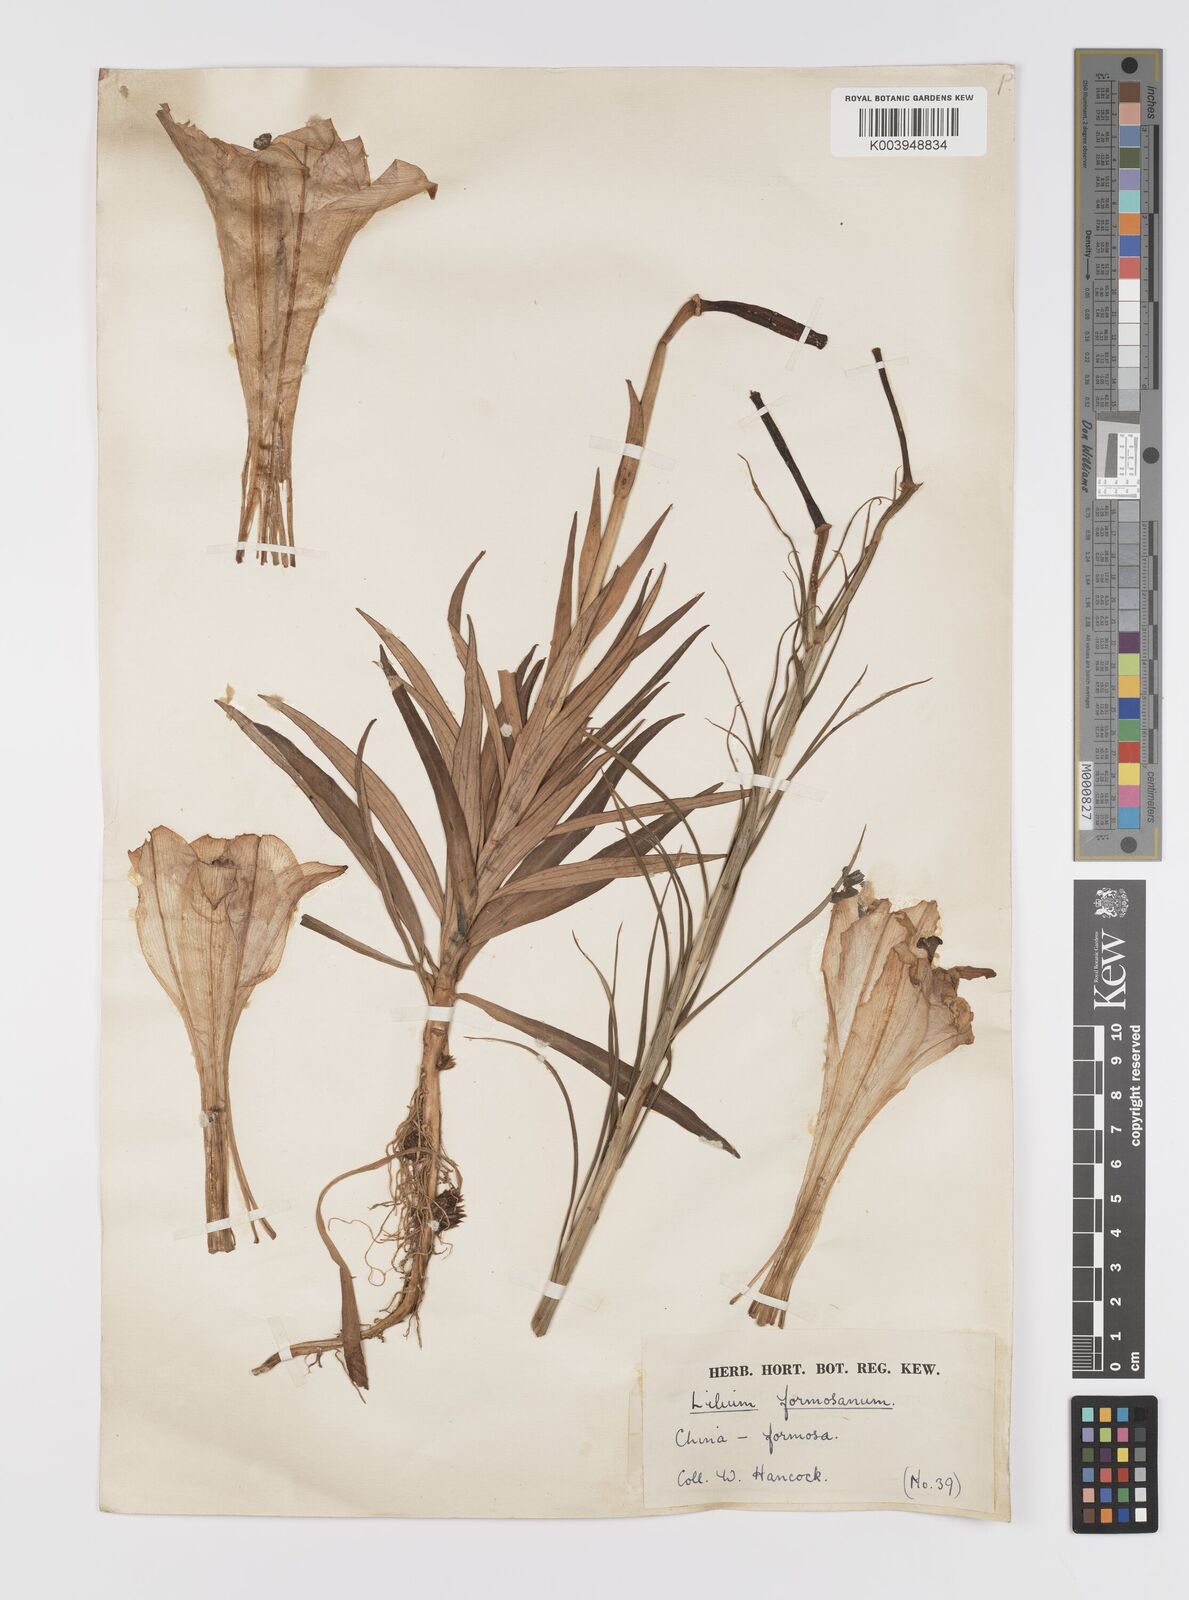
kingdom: Plantae
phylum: Tracheophyta
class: Liliopsida
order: Liliales
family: Liliaceae
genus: Lilium
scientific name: Lilium formosanum
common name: Formosa lily
